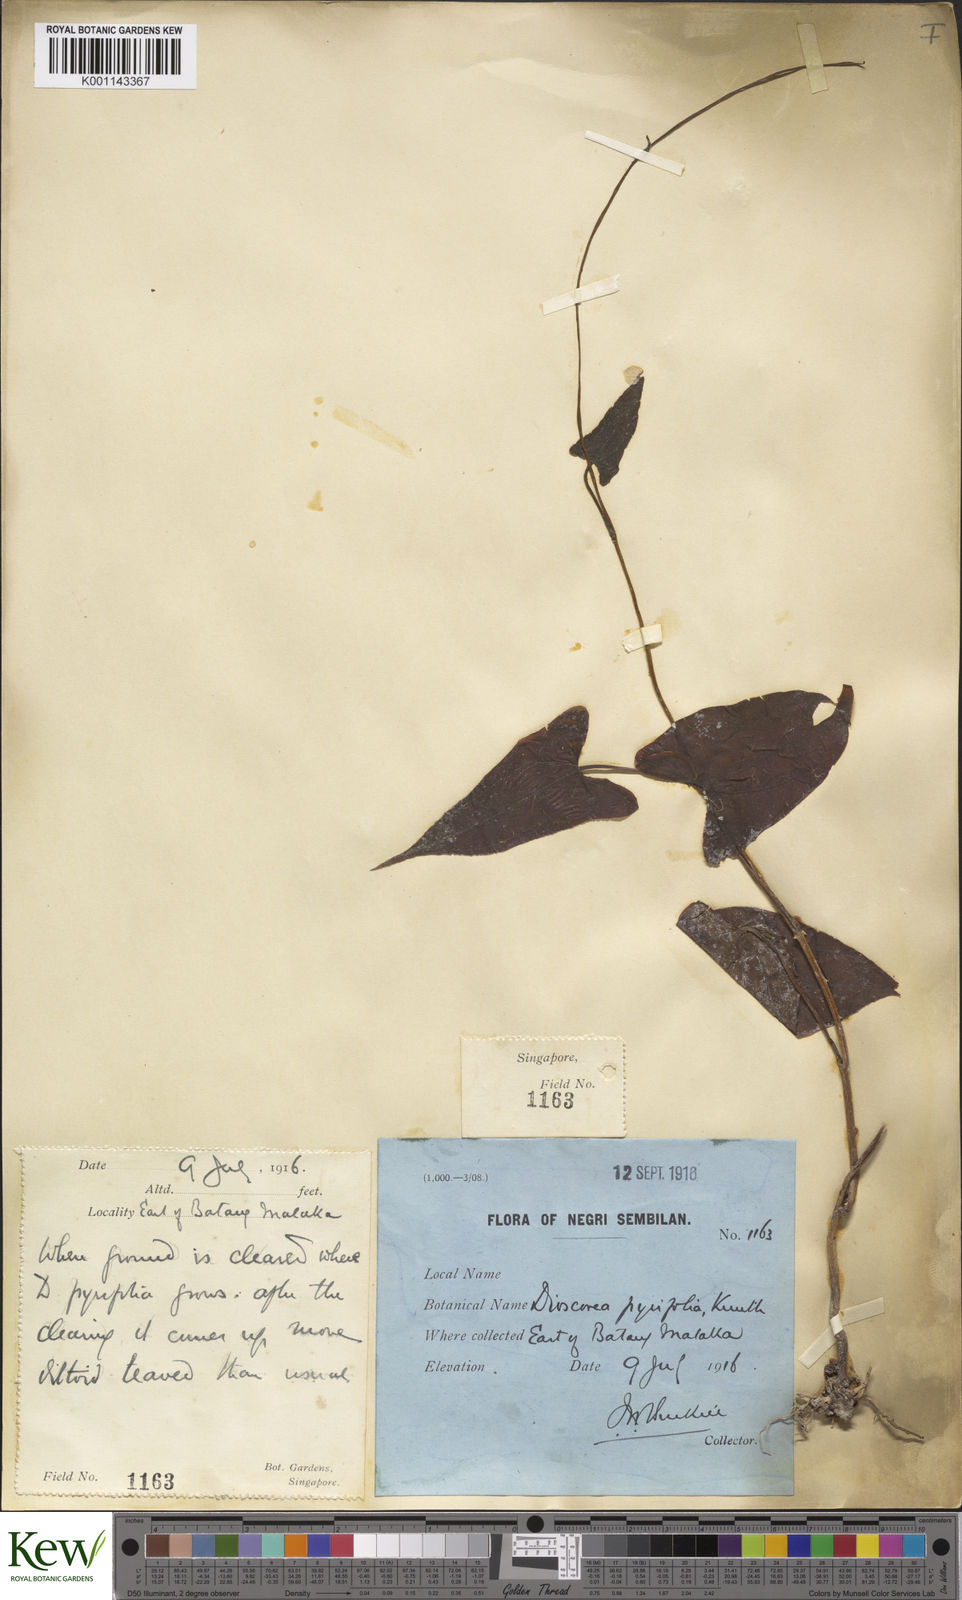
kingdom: Plantae
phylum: Tracheophyta
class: Liliopsida
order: Dioscoreales
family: Dioscoreaceae
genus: Dioscorea
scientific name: Dioscorea pyrifolia
